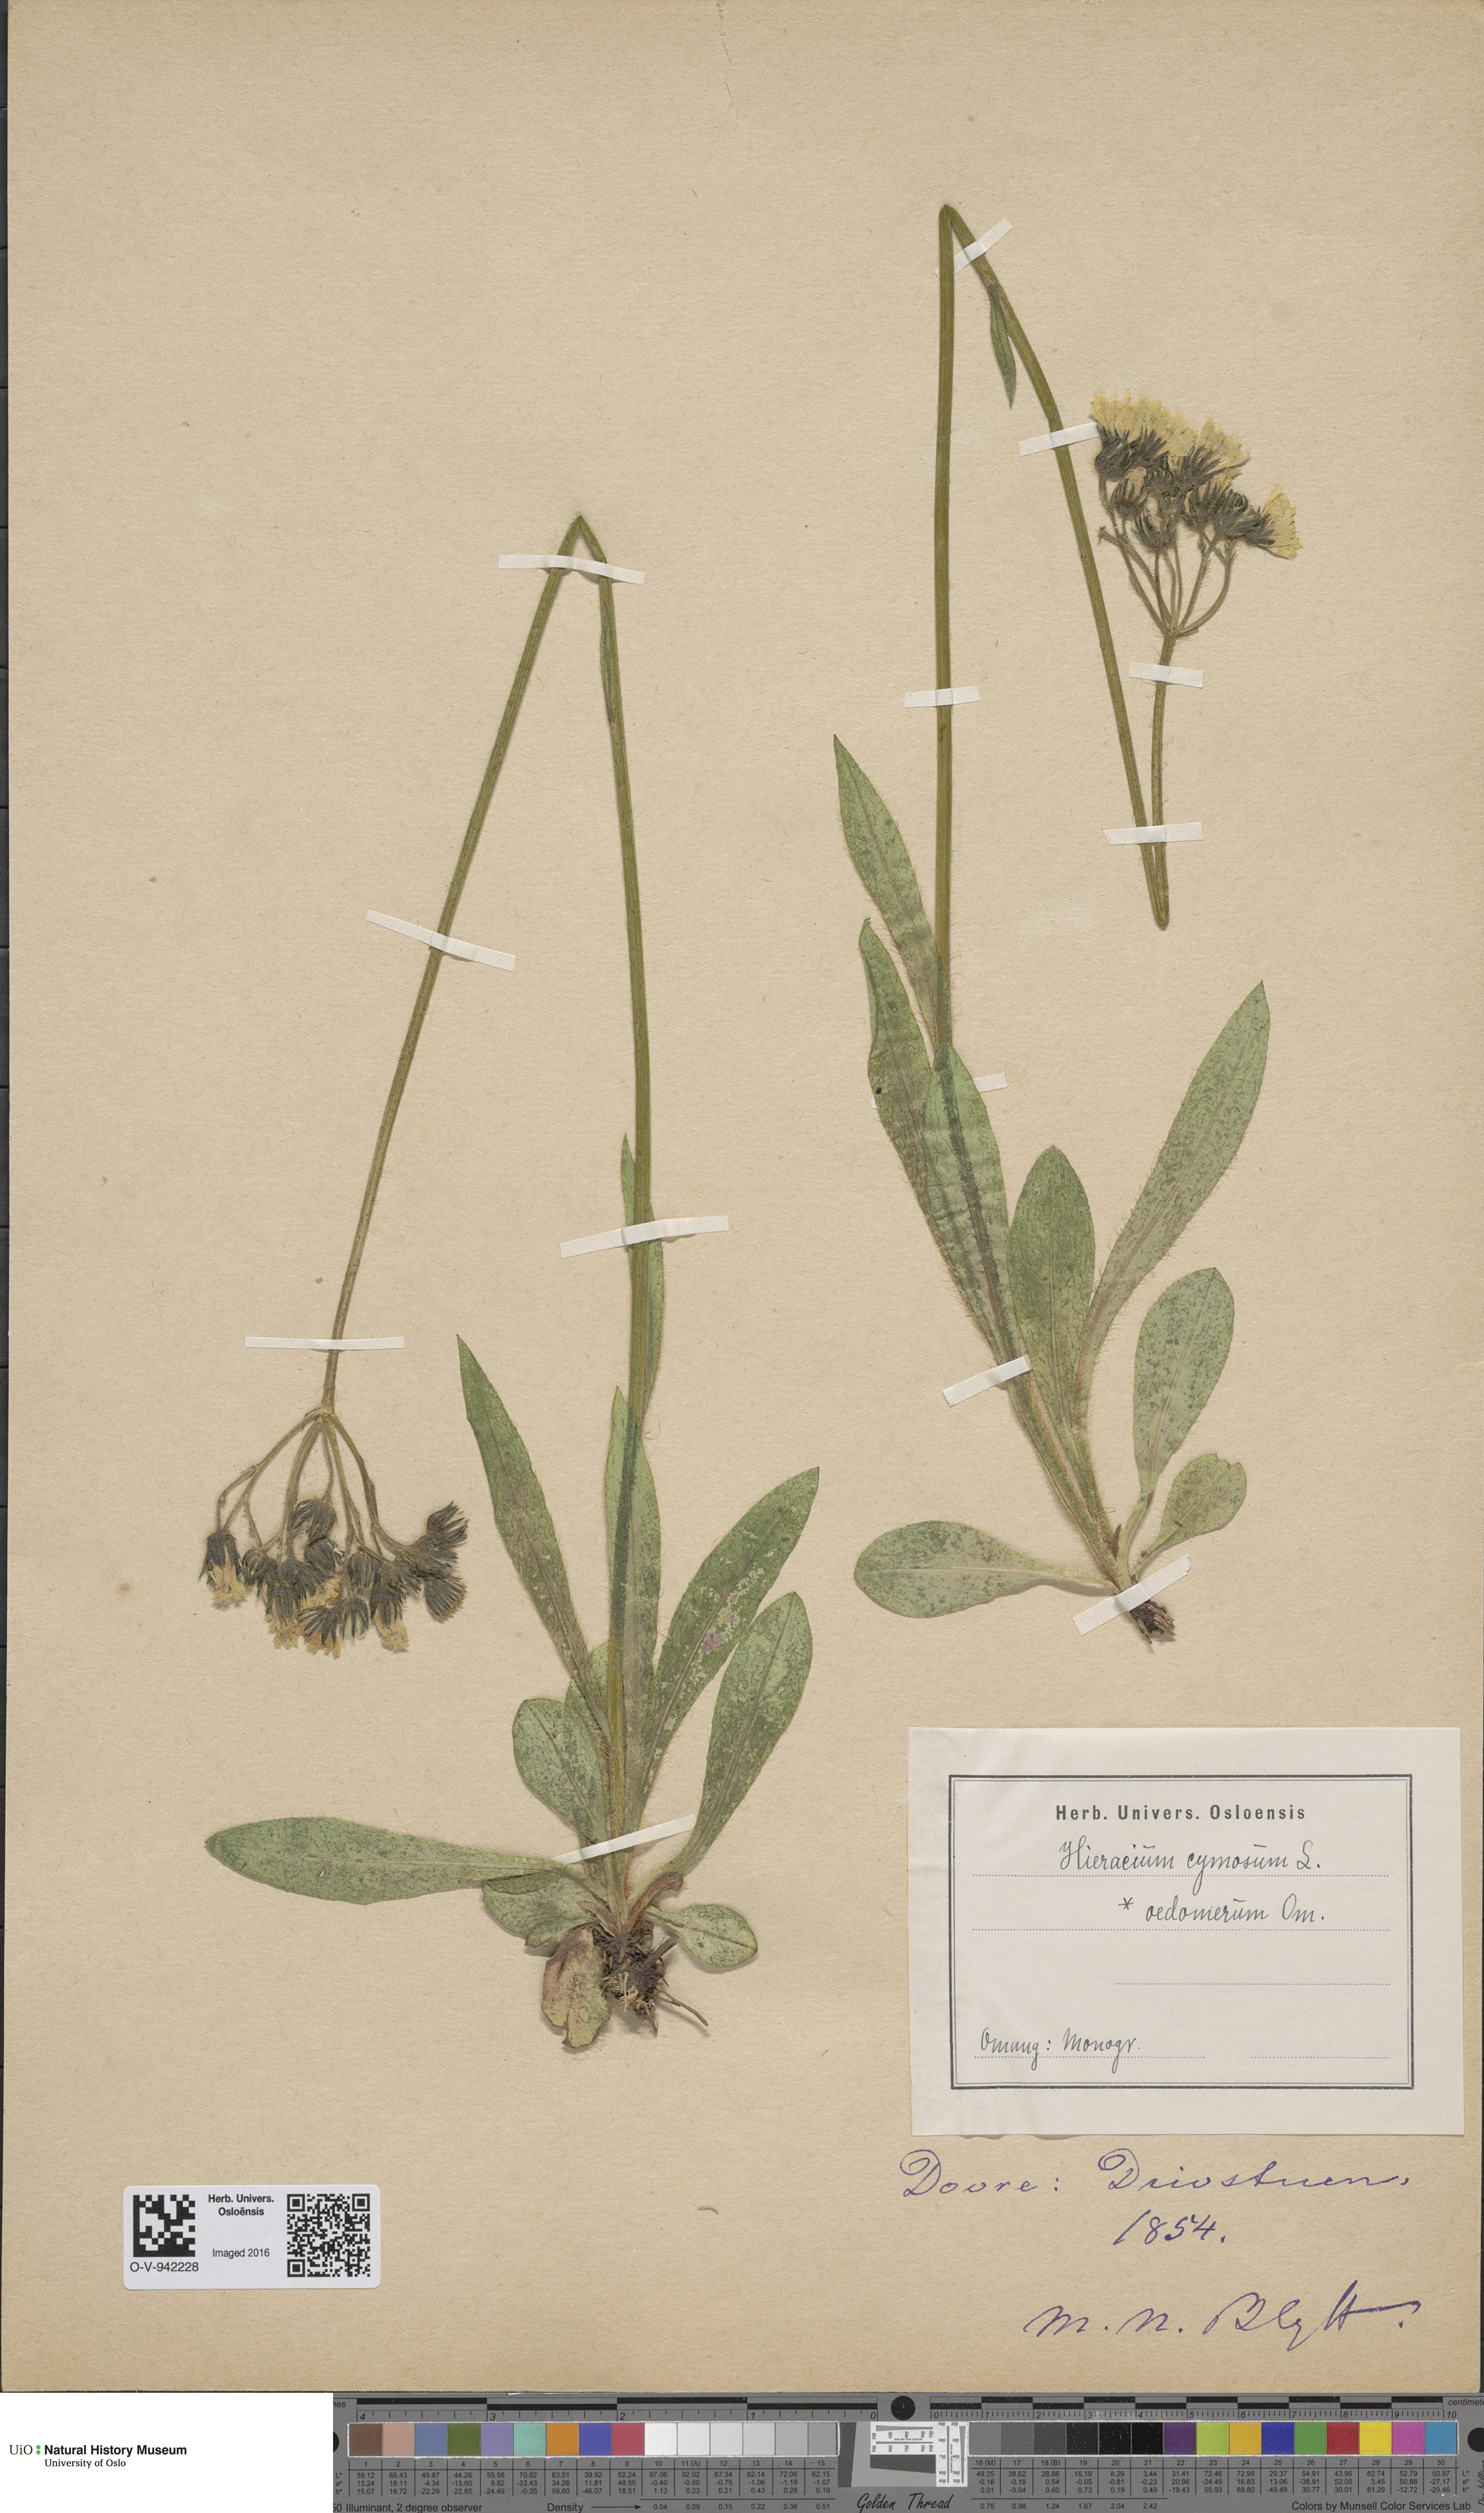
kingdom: Plantae
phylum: Tracheophyta
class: Magnoliopsida
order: Asterales
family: Asteraceae
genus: Pilosella
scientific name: Pilosella cymosa
